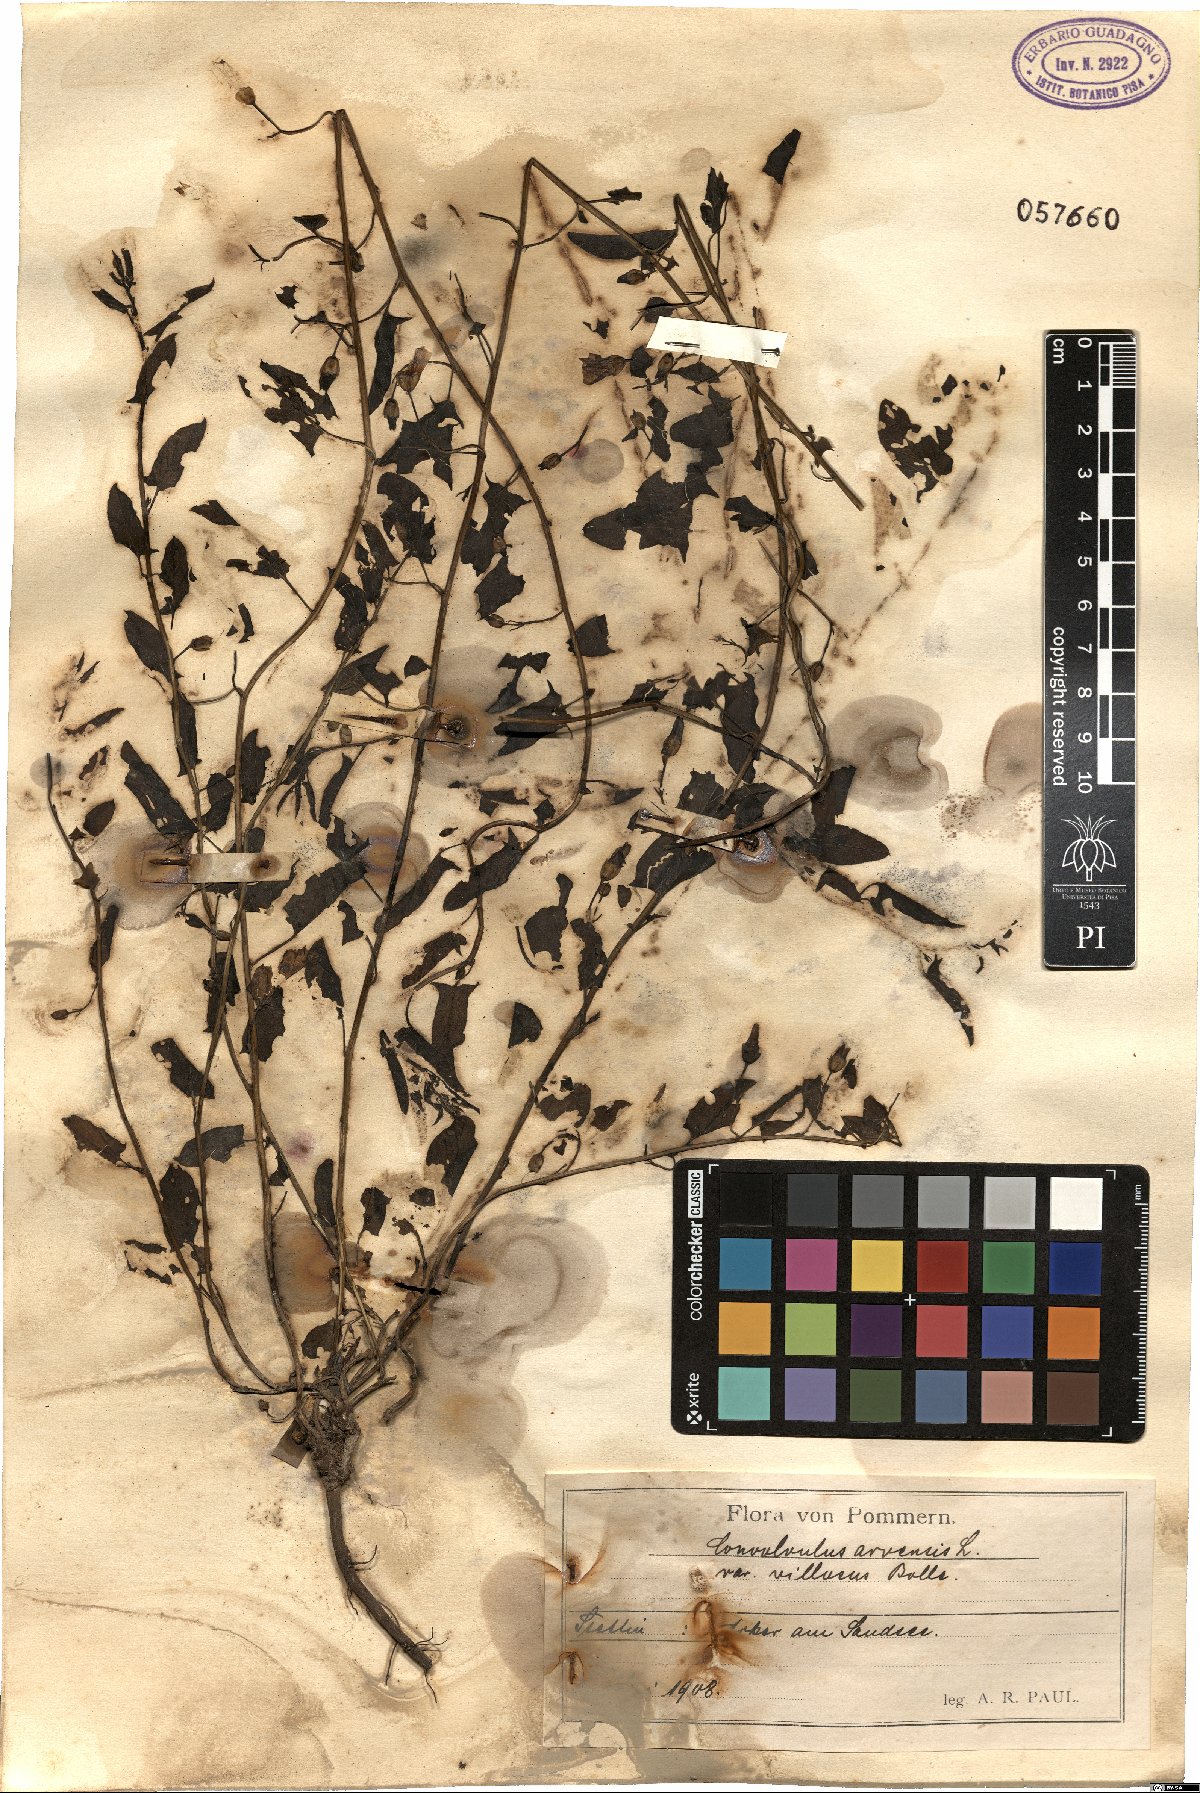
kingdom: Plantae
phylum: Tracheophyta
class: Magnoliopsida
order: Solanales
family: Convolvulaceae
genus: Convolvulus
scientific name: Convolvulus arvensis
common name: Field bindweed
